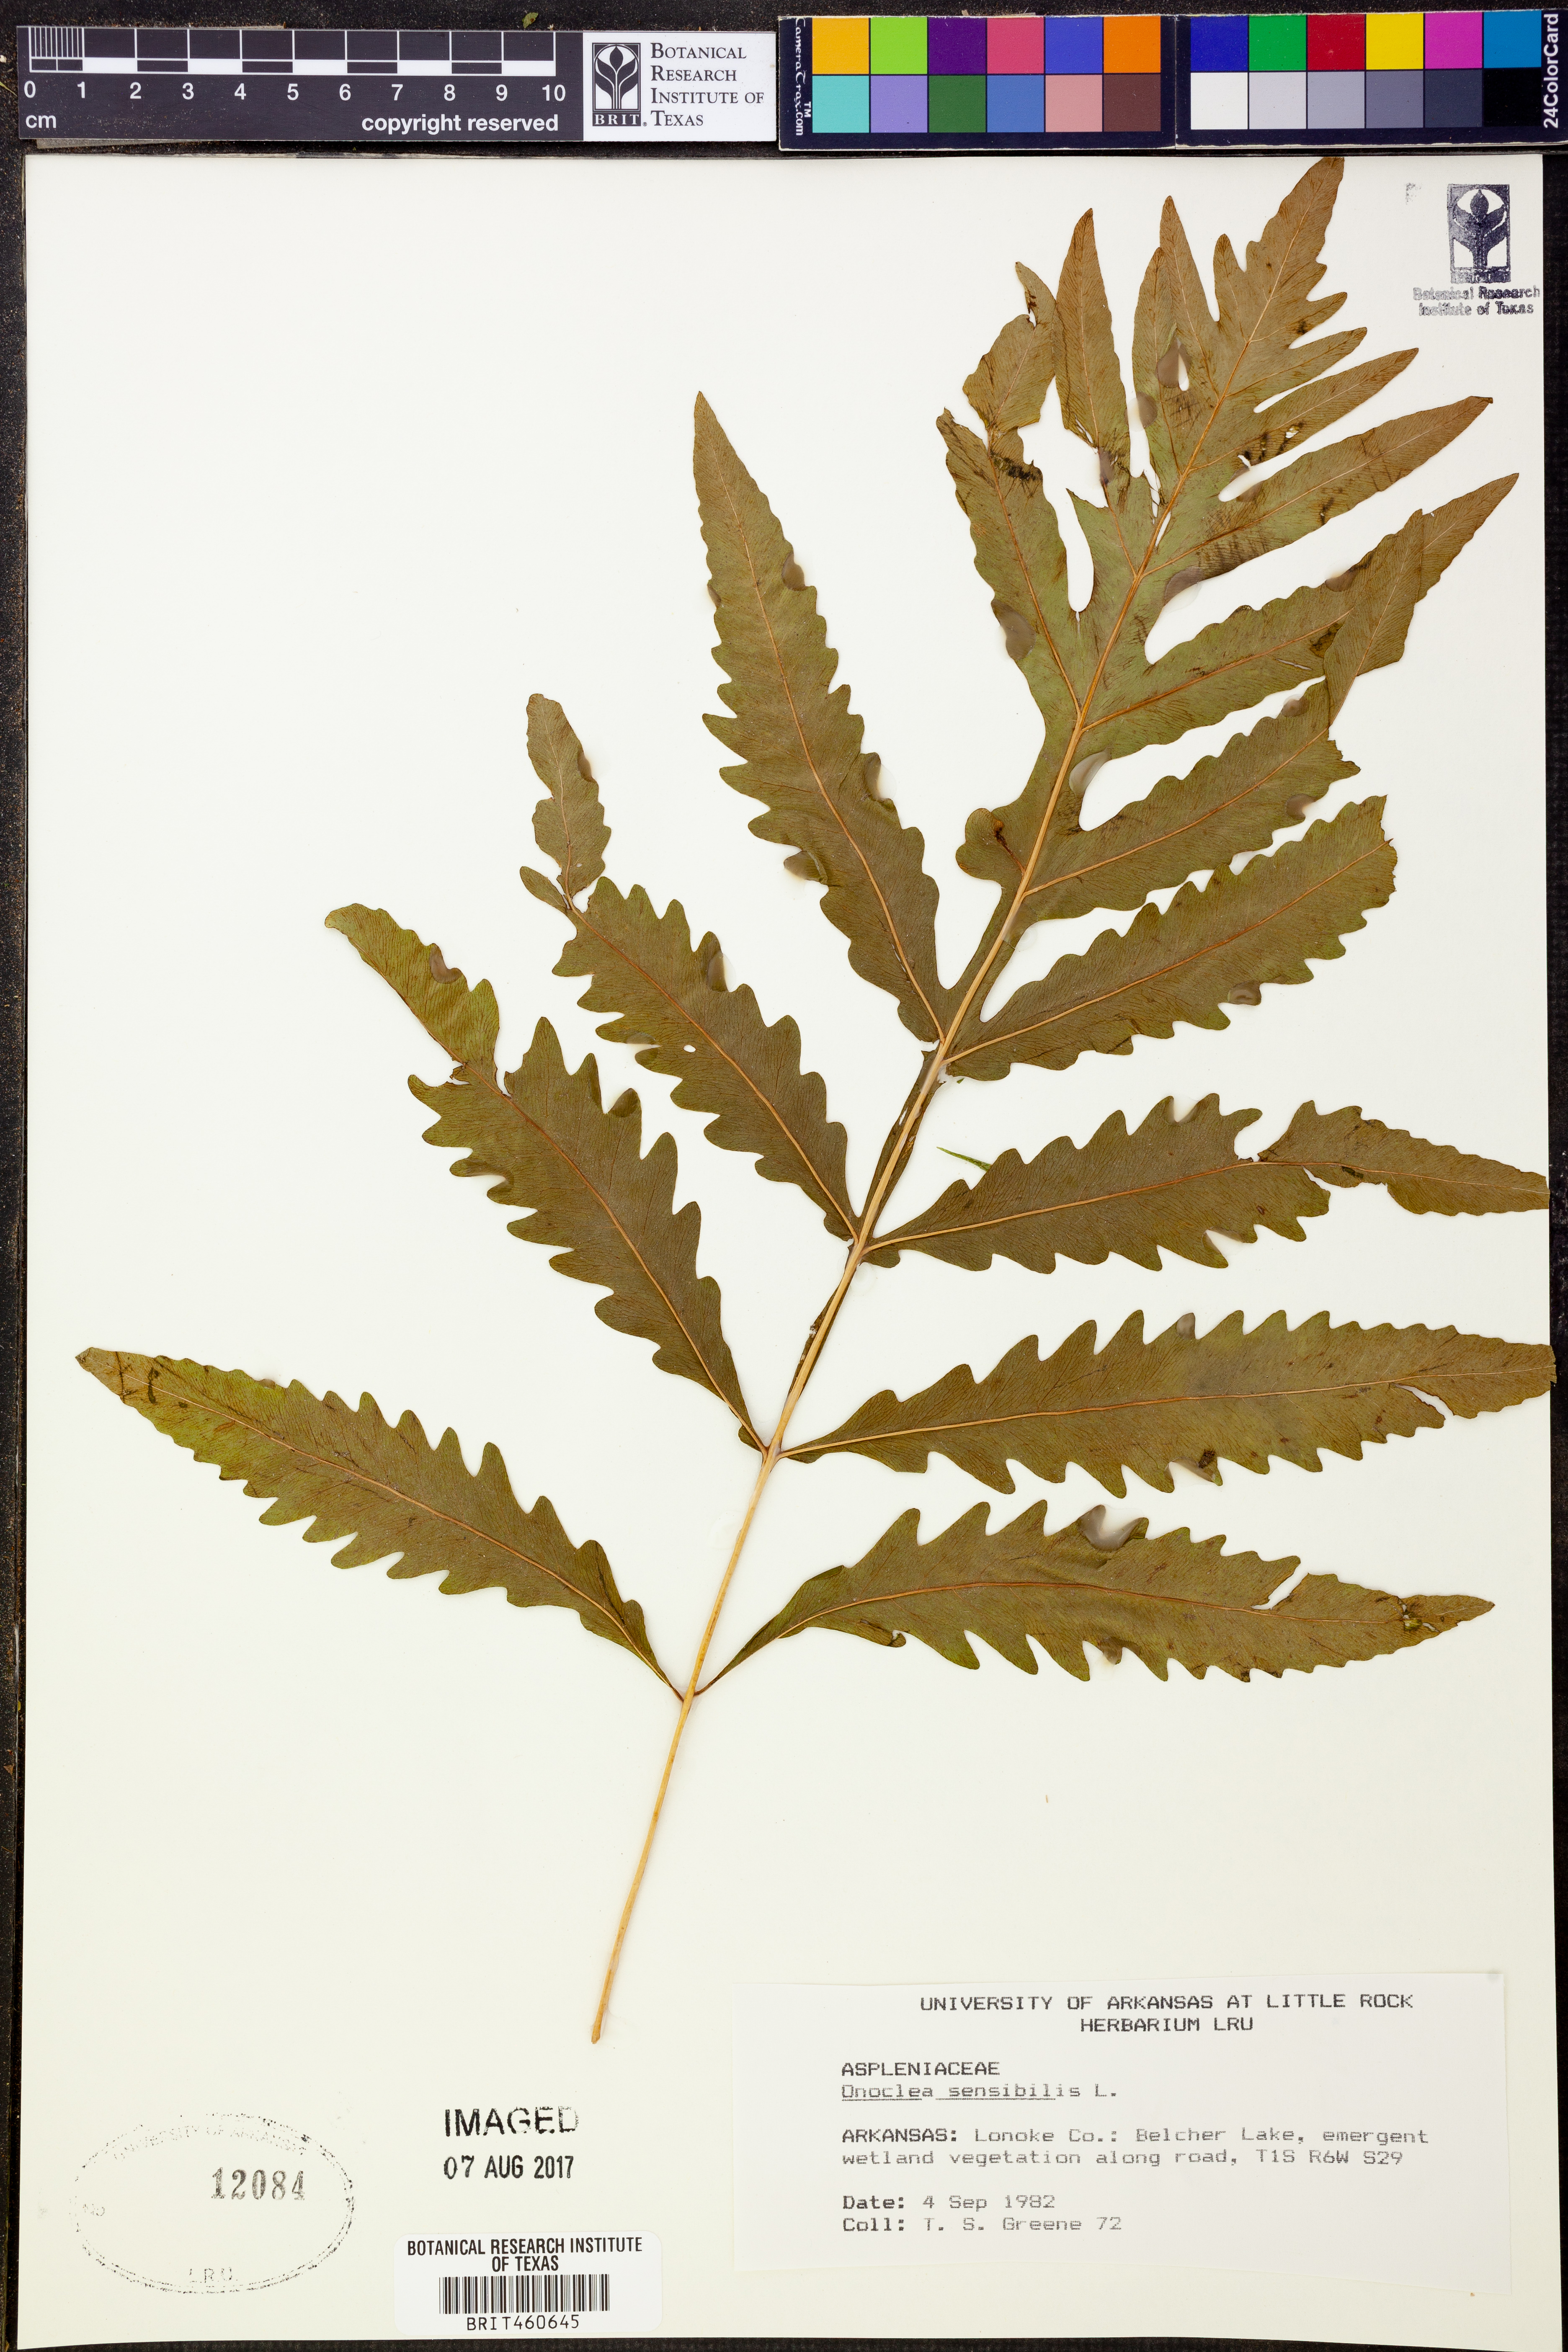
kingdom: Plantae
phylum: Tracheophyta
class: Polypodiopsida
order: Polypodiales
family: Onocleaceae
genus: Onoclea
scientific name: Onoclea sensibilis
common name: Sensitive fern
